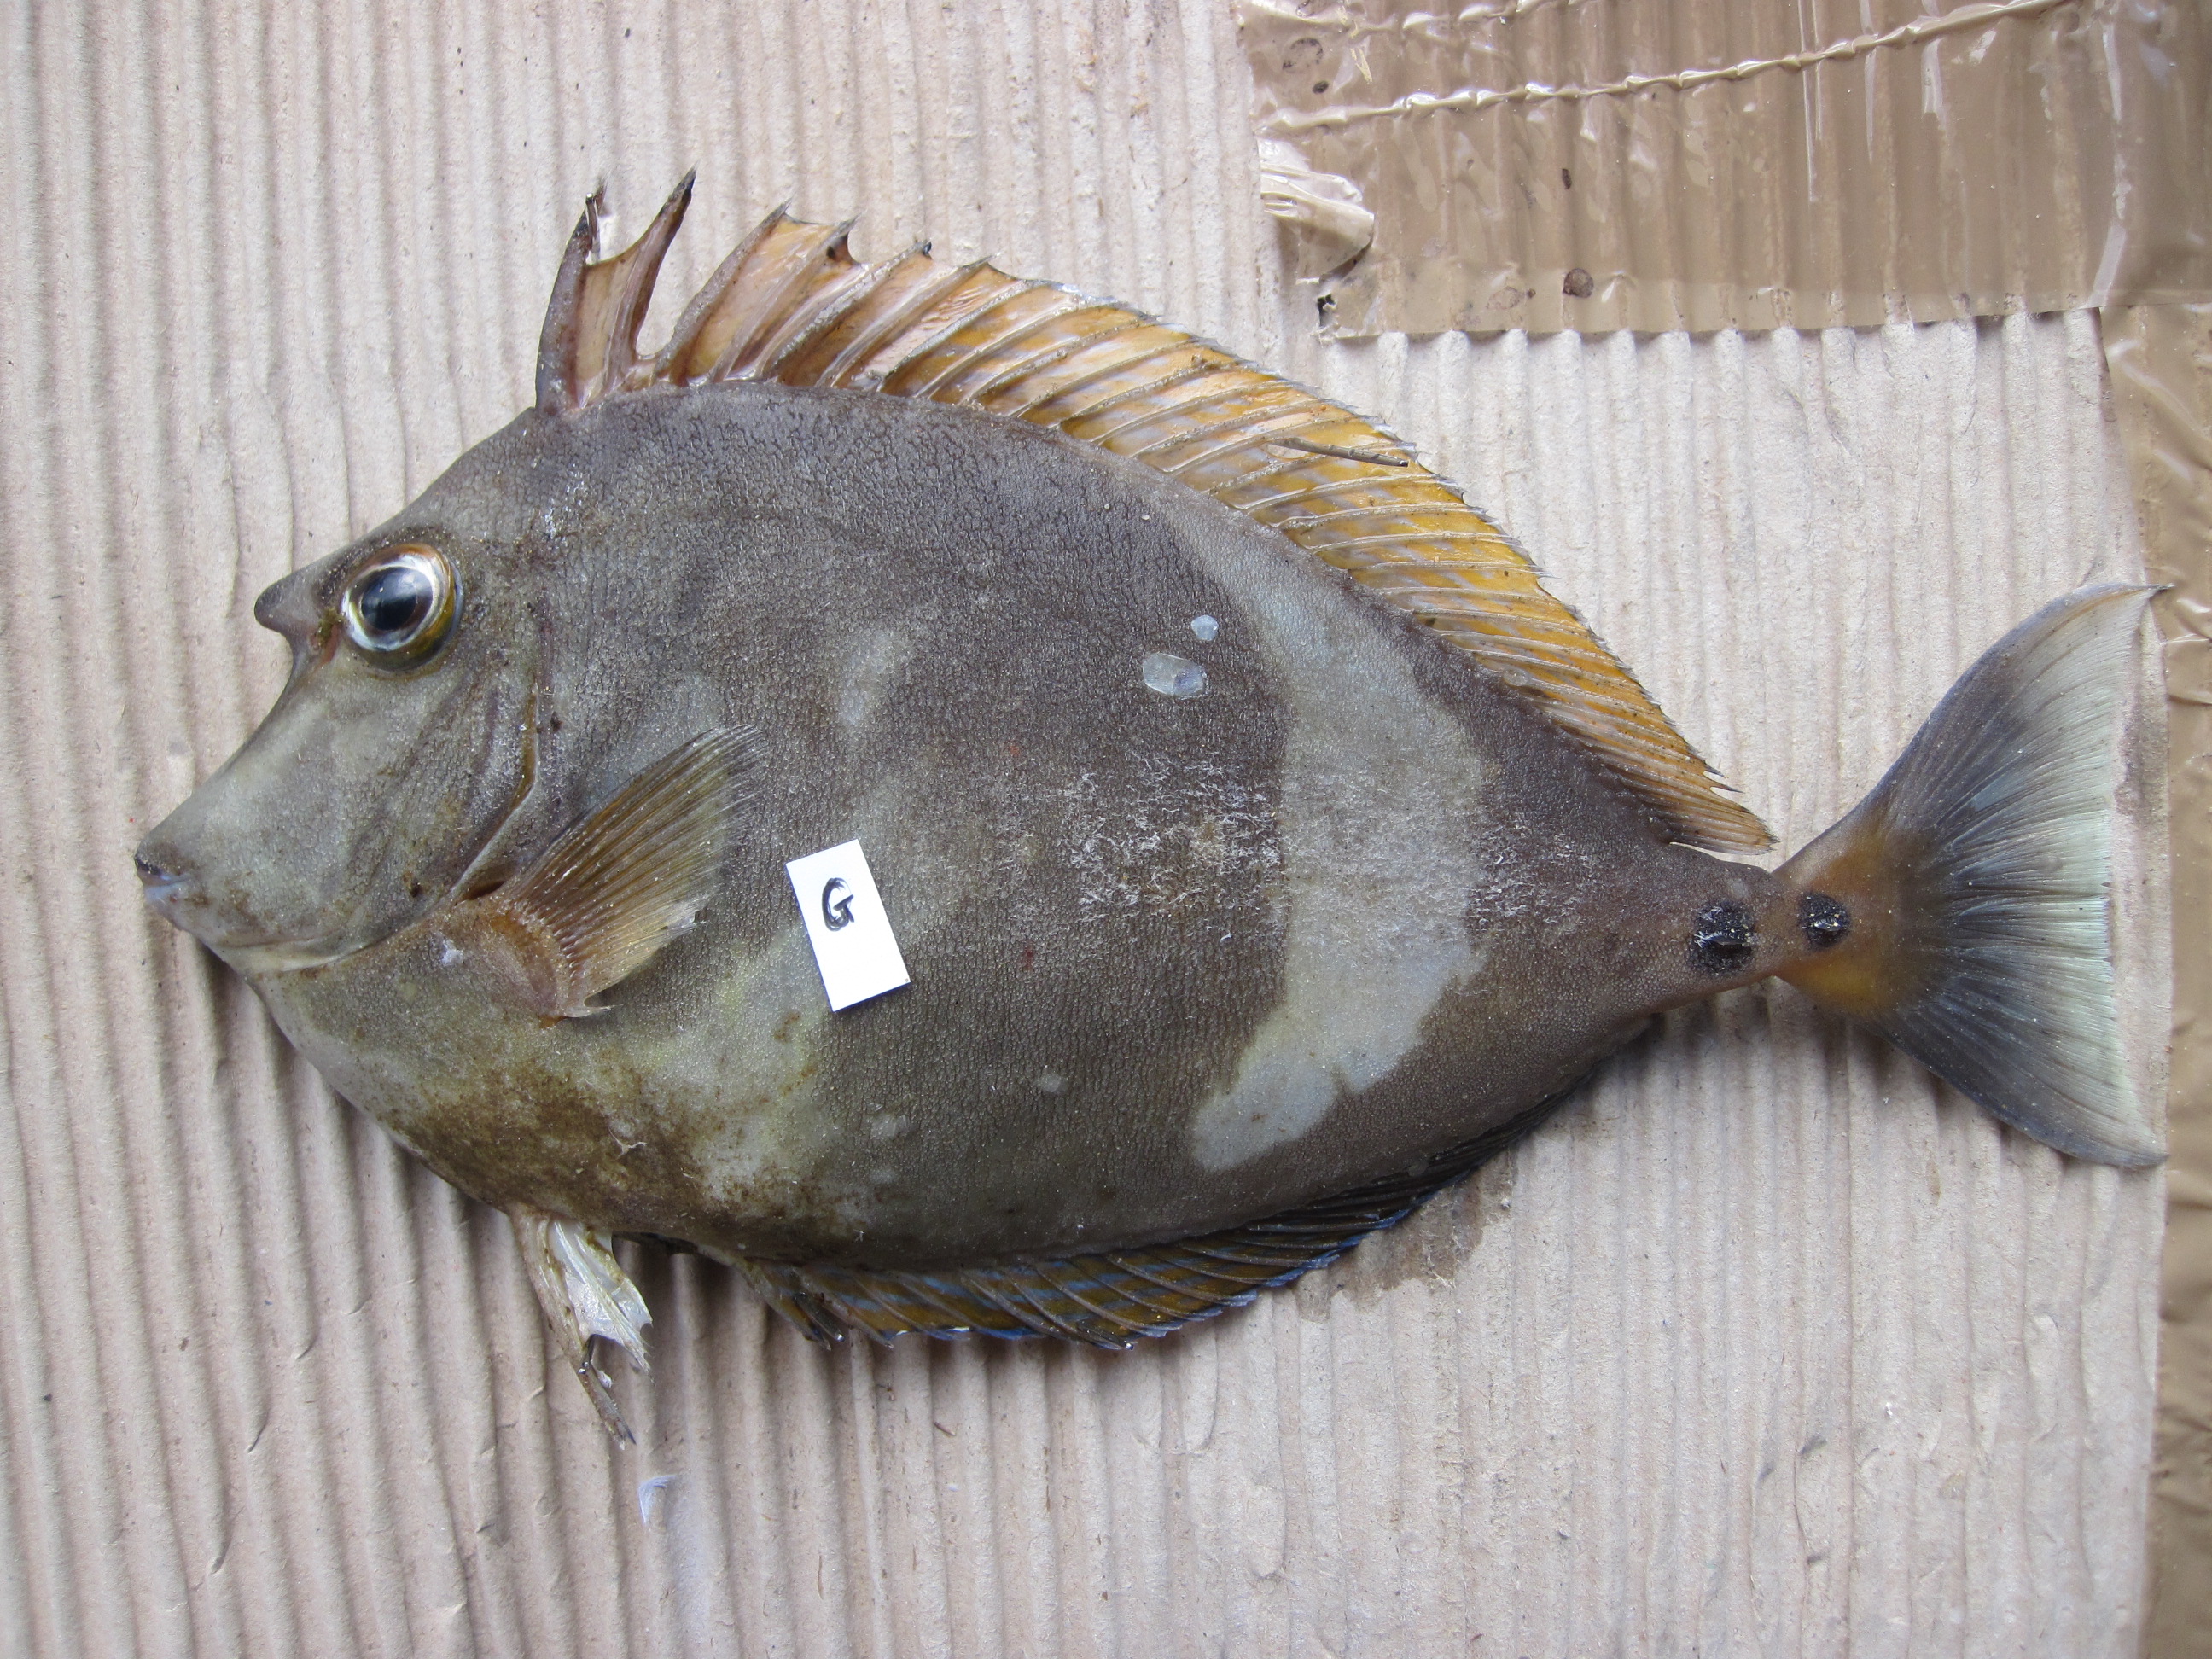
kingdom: Animalia
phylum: Chordata
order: Perciformes
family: Acanthuridae
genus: Naso
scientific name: Naso unicornis
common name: Bluespine unicornfish
